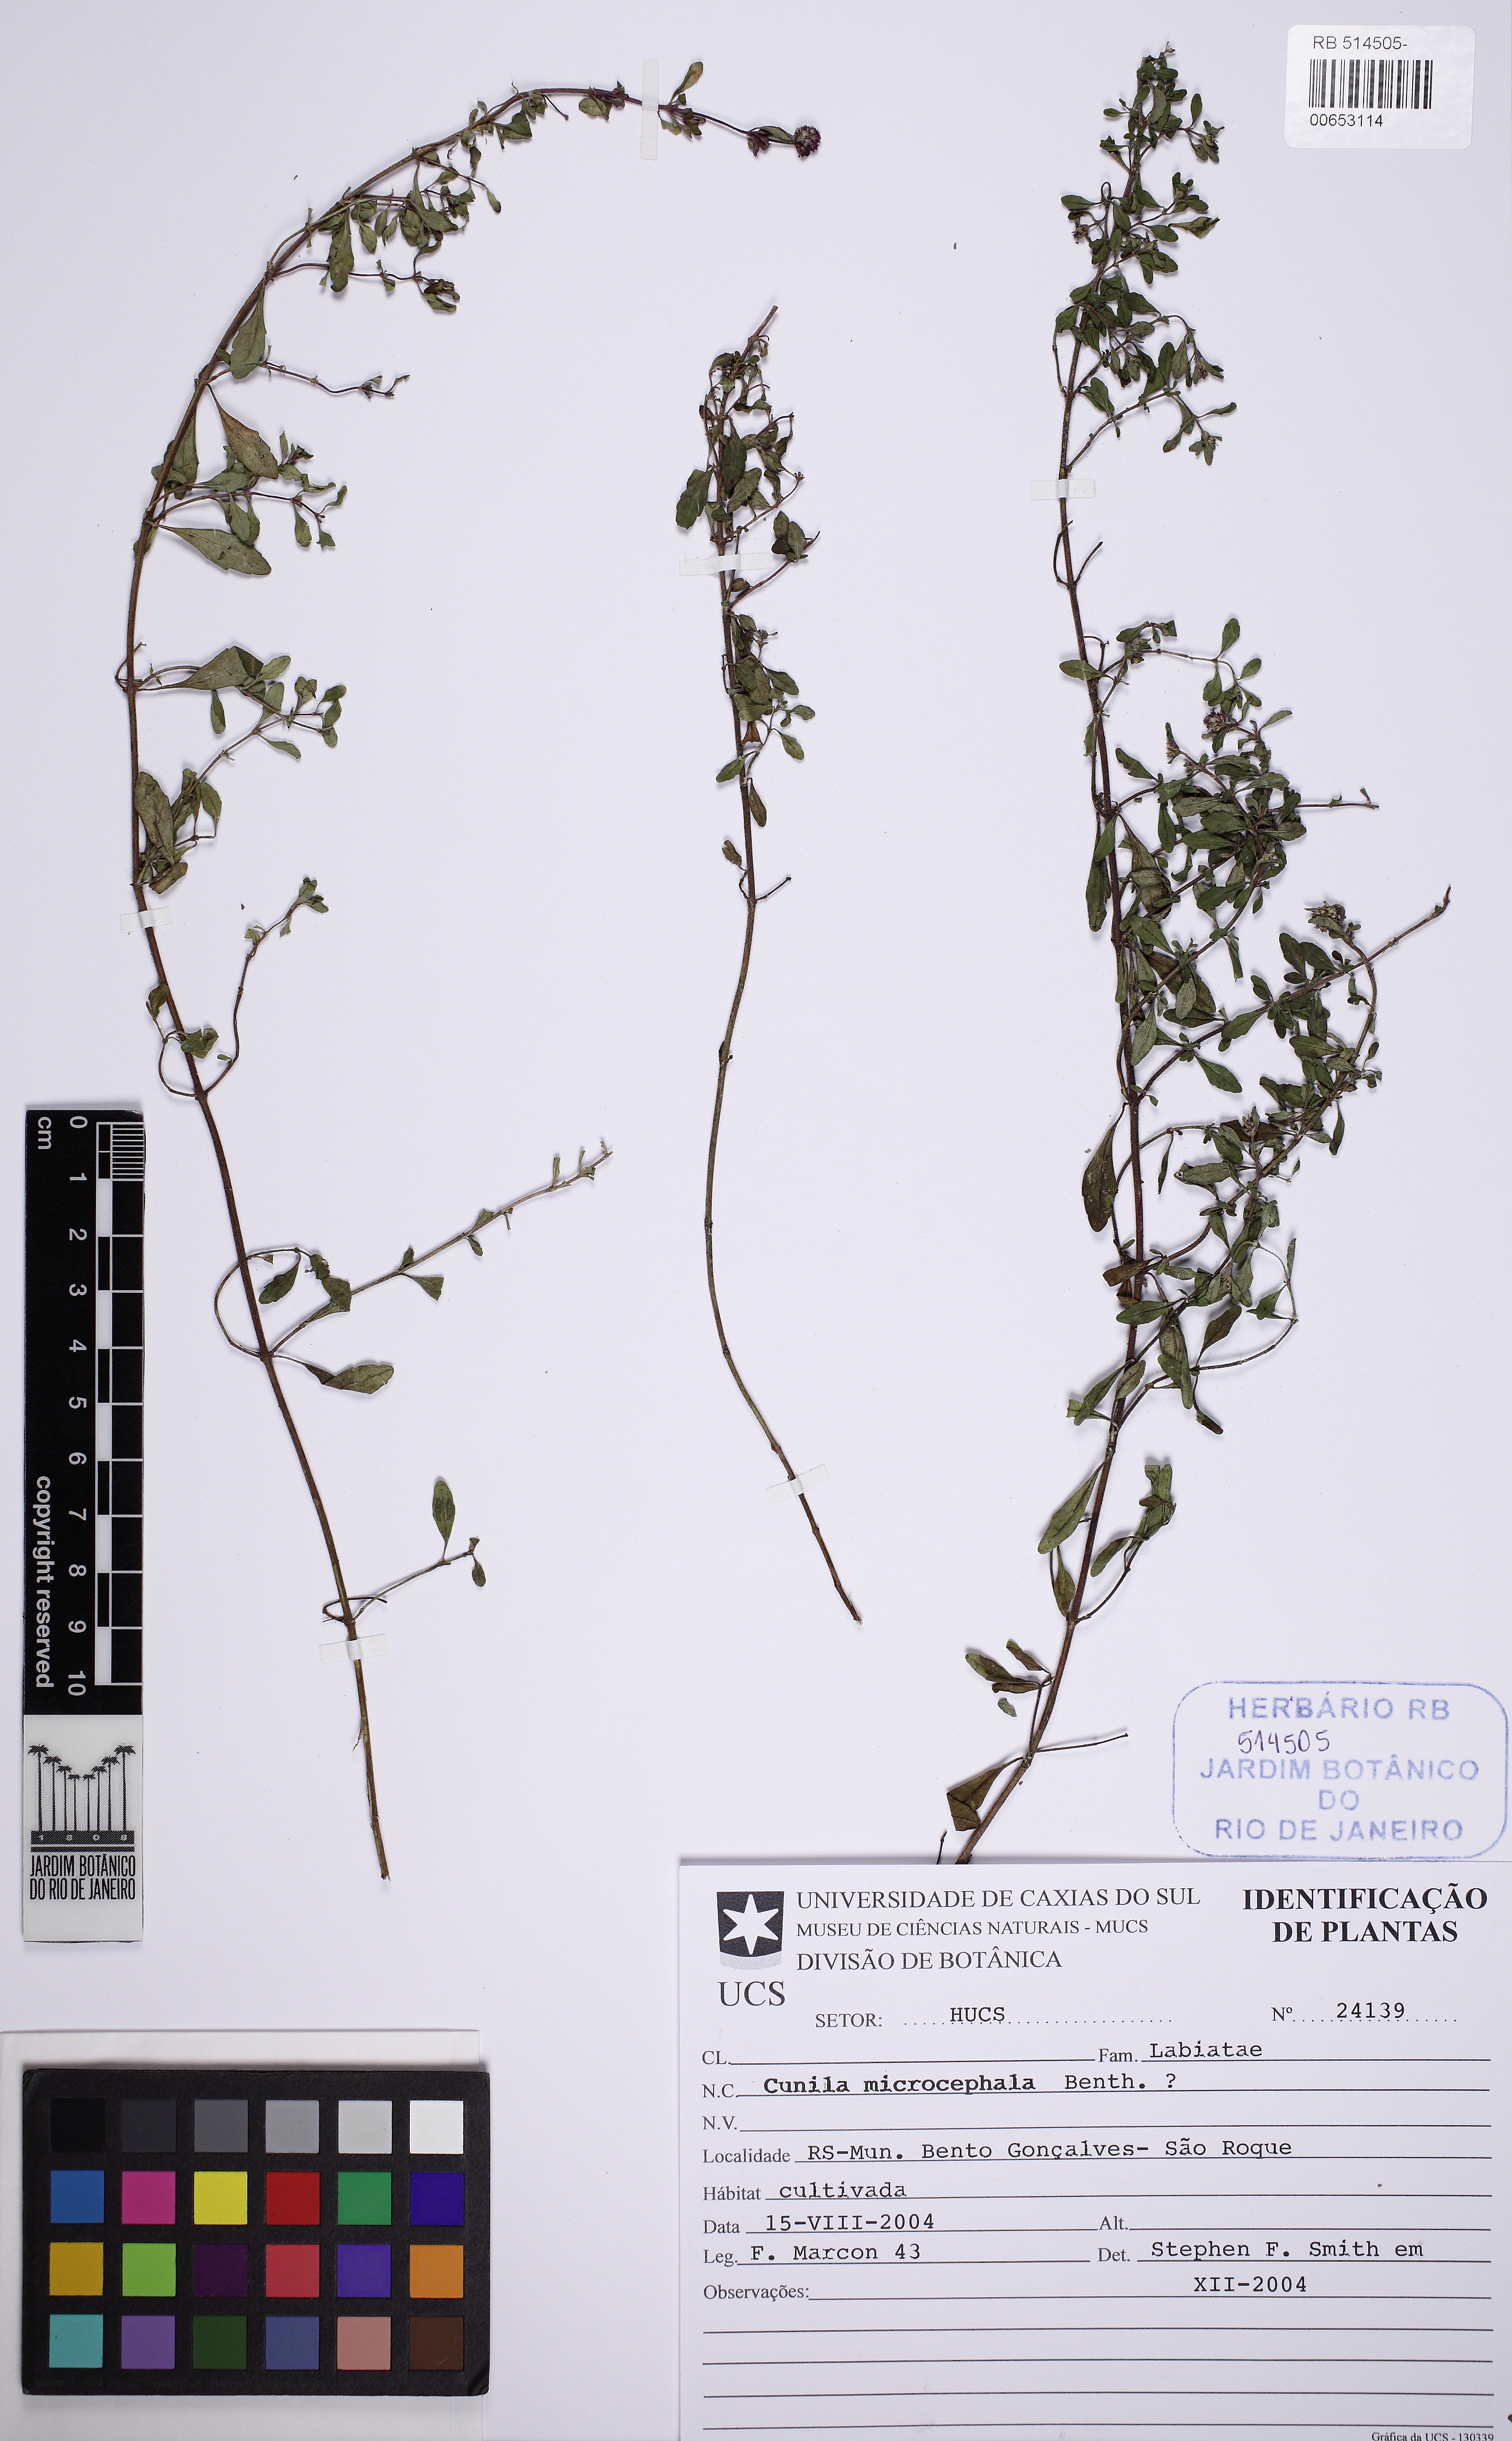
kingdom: Plantae
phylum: Tracheophyta
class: Magnoliopsida
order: Lamiales
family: Lamiaceae
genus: Cunila
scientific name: Cunila microcephala
